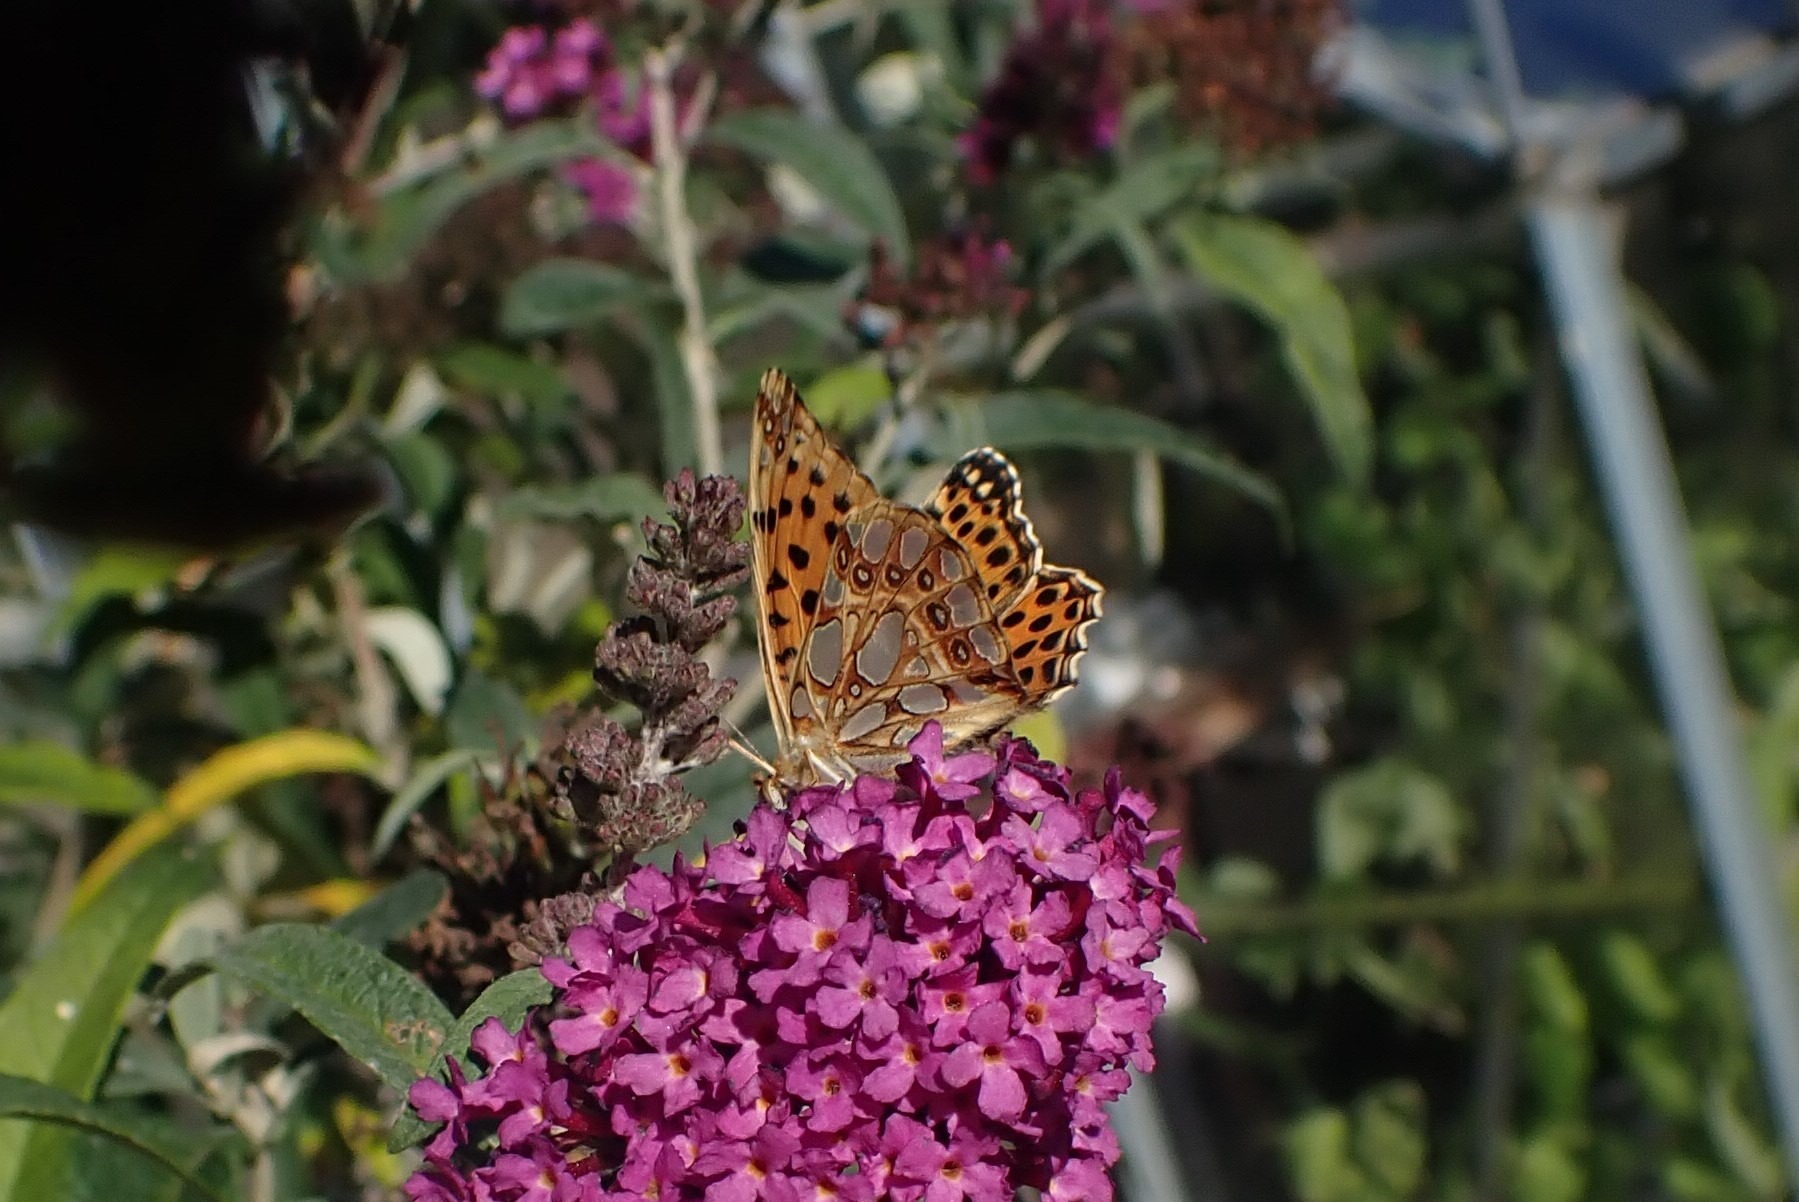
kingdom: Animalia
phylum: Arthropoda
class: Insecta
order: Lepidoptera
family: Nymphalidae
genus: Issoria
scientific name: Issoria lathonia
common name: Storplettet perlemorsommerfugl
